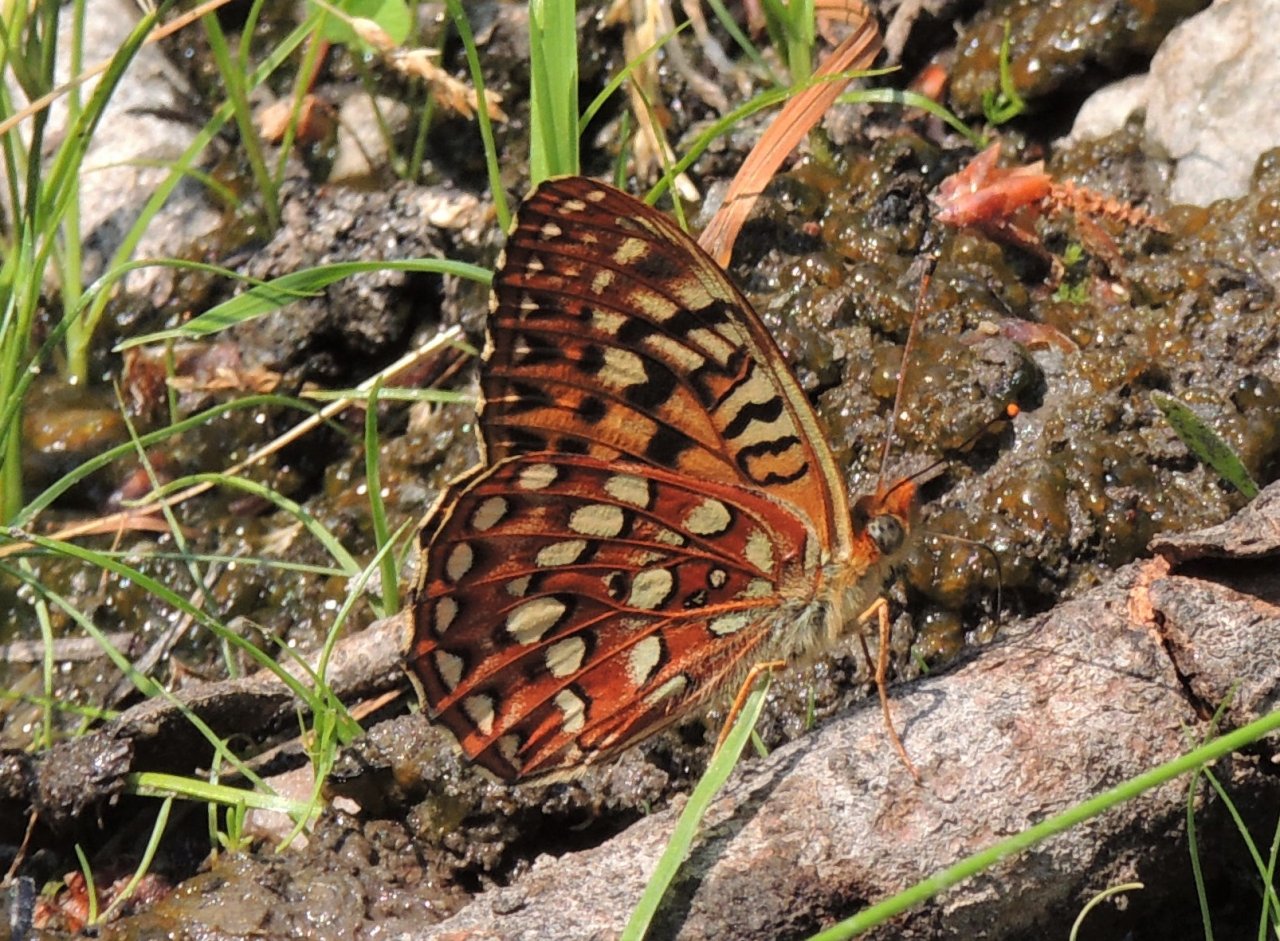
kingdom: Animalia
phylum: Arthropoda
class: Insecta
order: Lepidoptera
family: Nymphalidae
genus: Speyeria
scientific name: Speyeria hydaspe
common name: Hydaspe Fritillary
